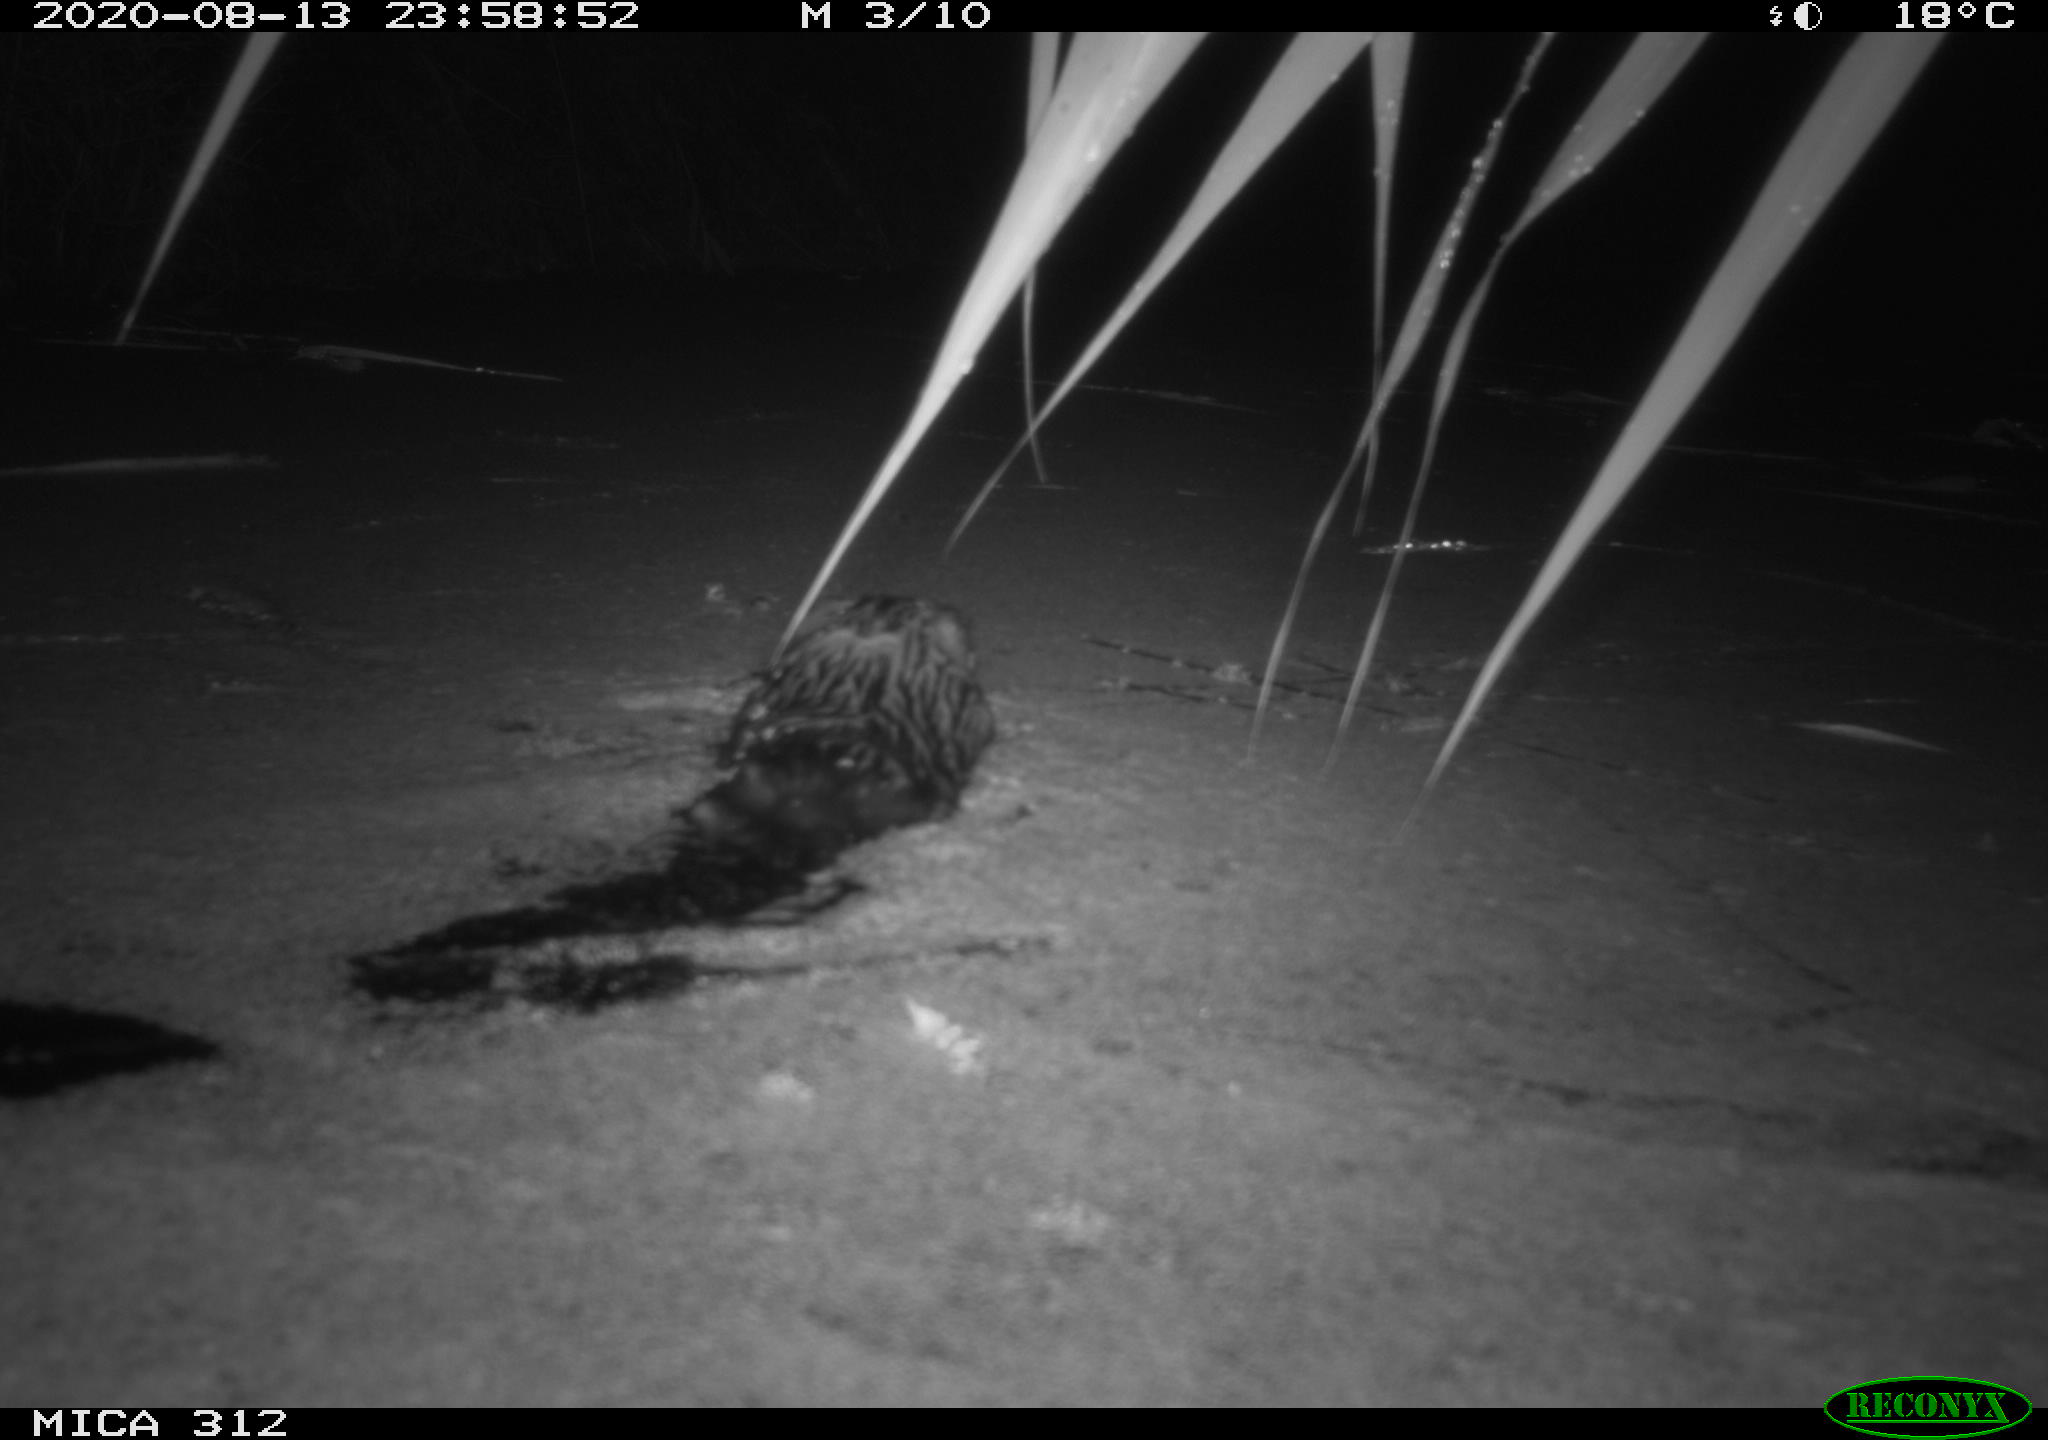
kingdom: Animalia
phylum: Chordata
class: Mammalia
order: Rodentia
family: Cricetidae
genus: Ondatra
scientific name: Ondatra zibethicus
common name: Muskrat
